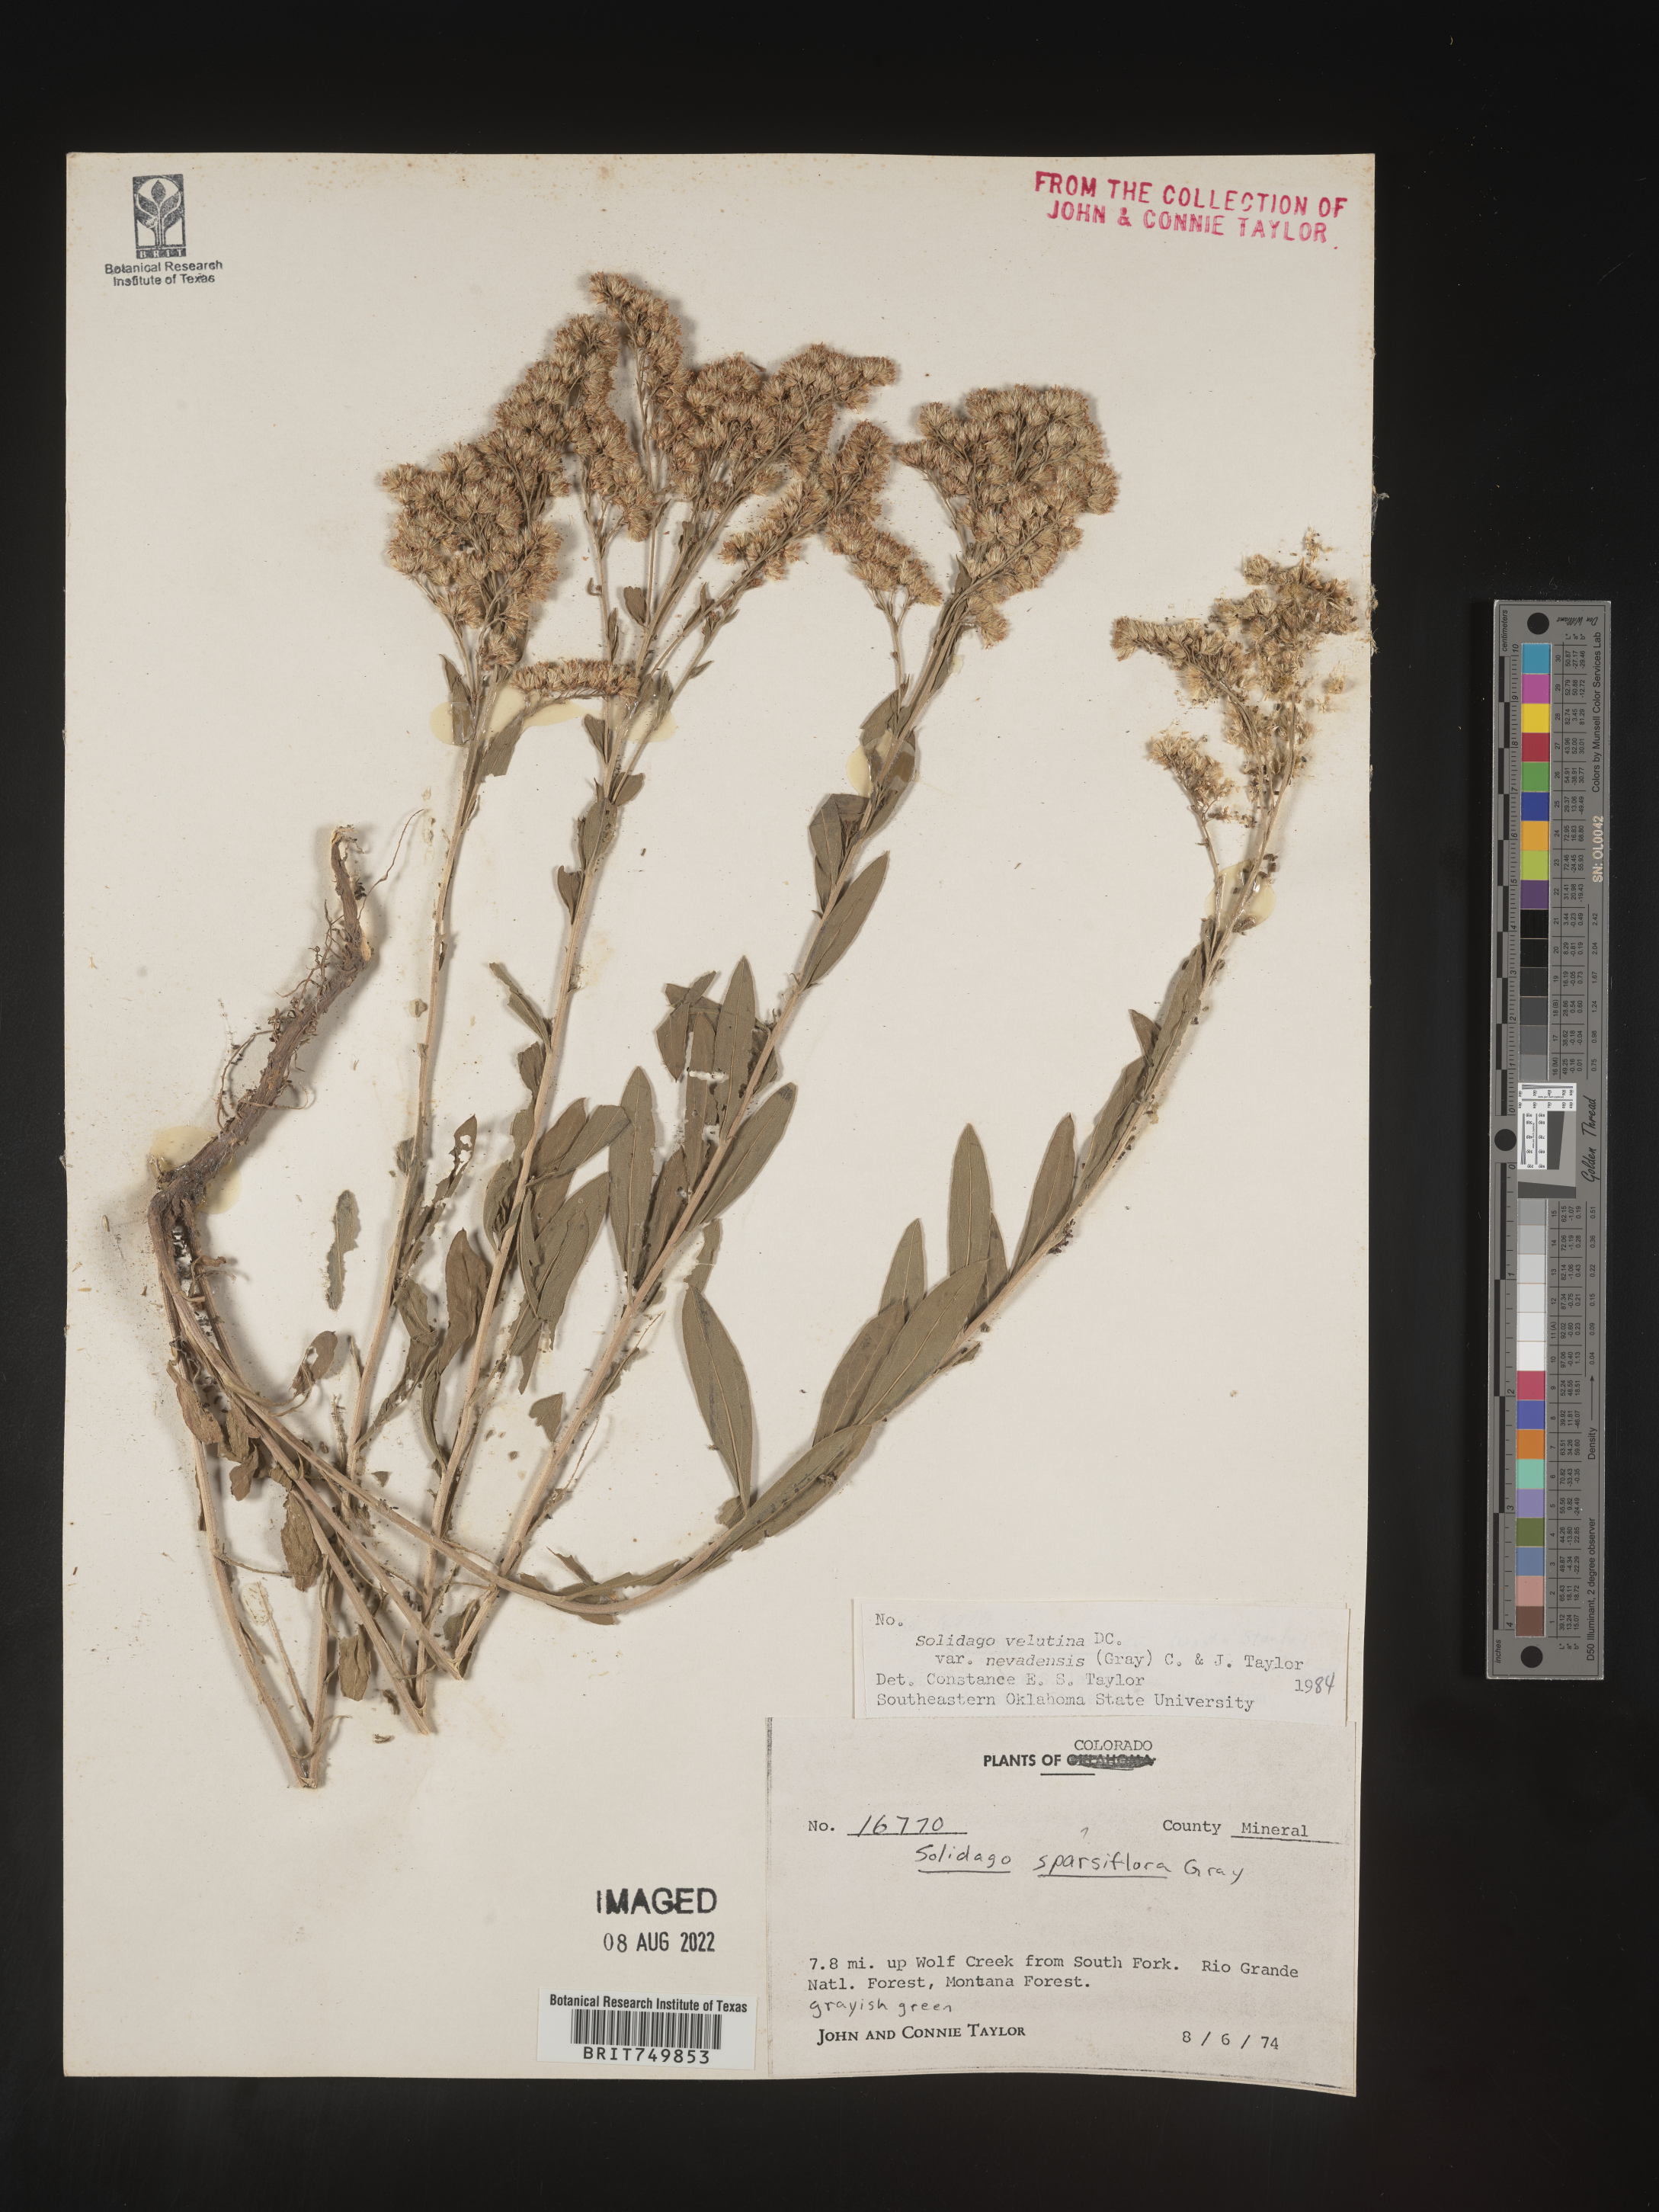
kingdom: Plantae
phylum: Tracheophyta
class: Magnoliopsida
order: Asterales
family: Asteraceae
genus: Solidago
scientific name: Solidago velutina
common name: Three-nerve goldenrod
